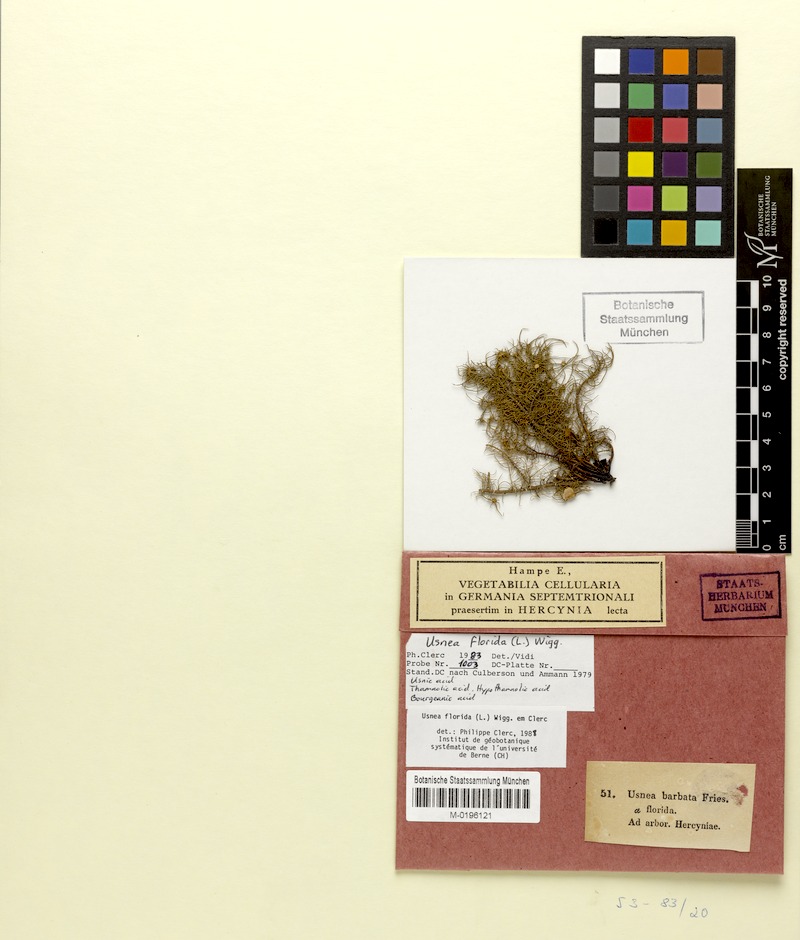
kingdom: Fungi
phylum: Ascomycota
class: Lecanoromycetes
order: Lecanorales
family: Parmeliaceae
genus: Usnea
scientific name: Usnea florida
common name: Witches' whiskers lichen
